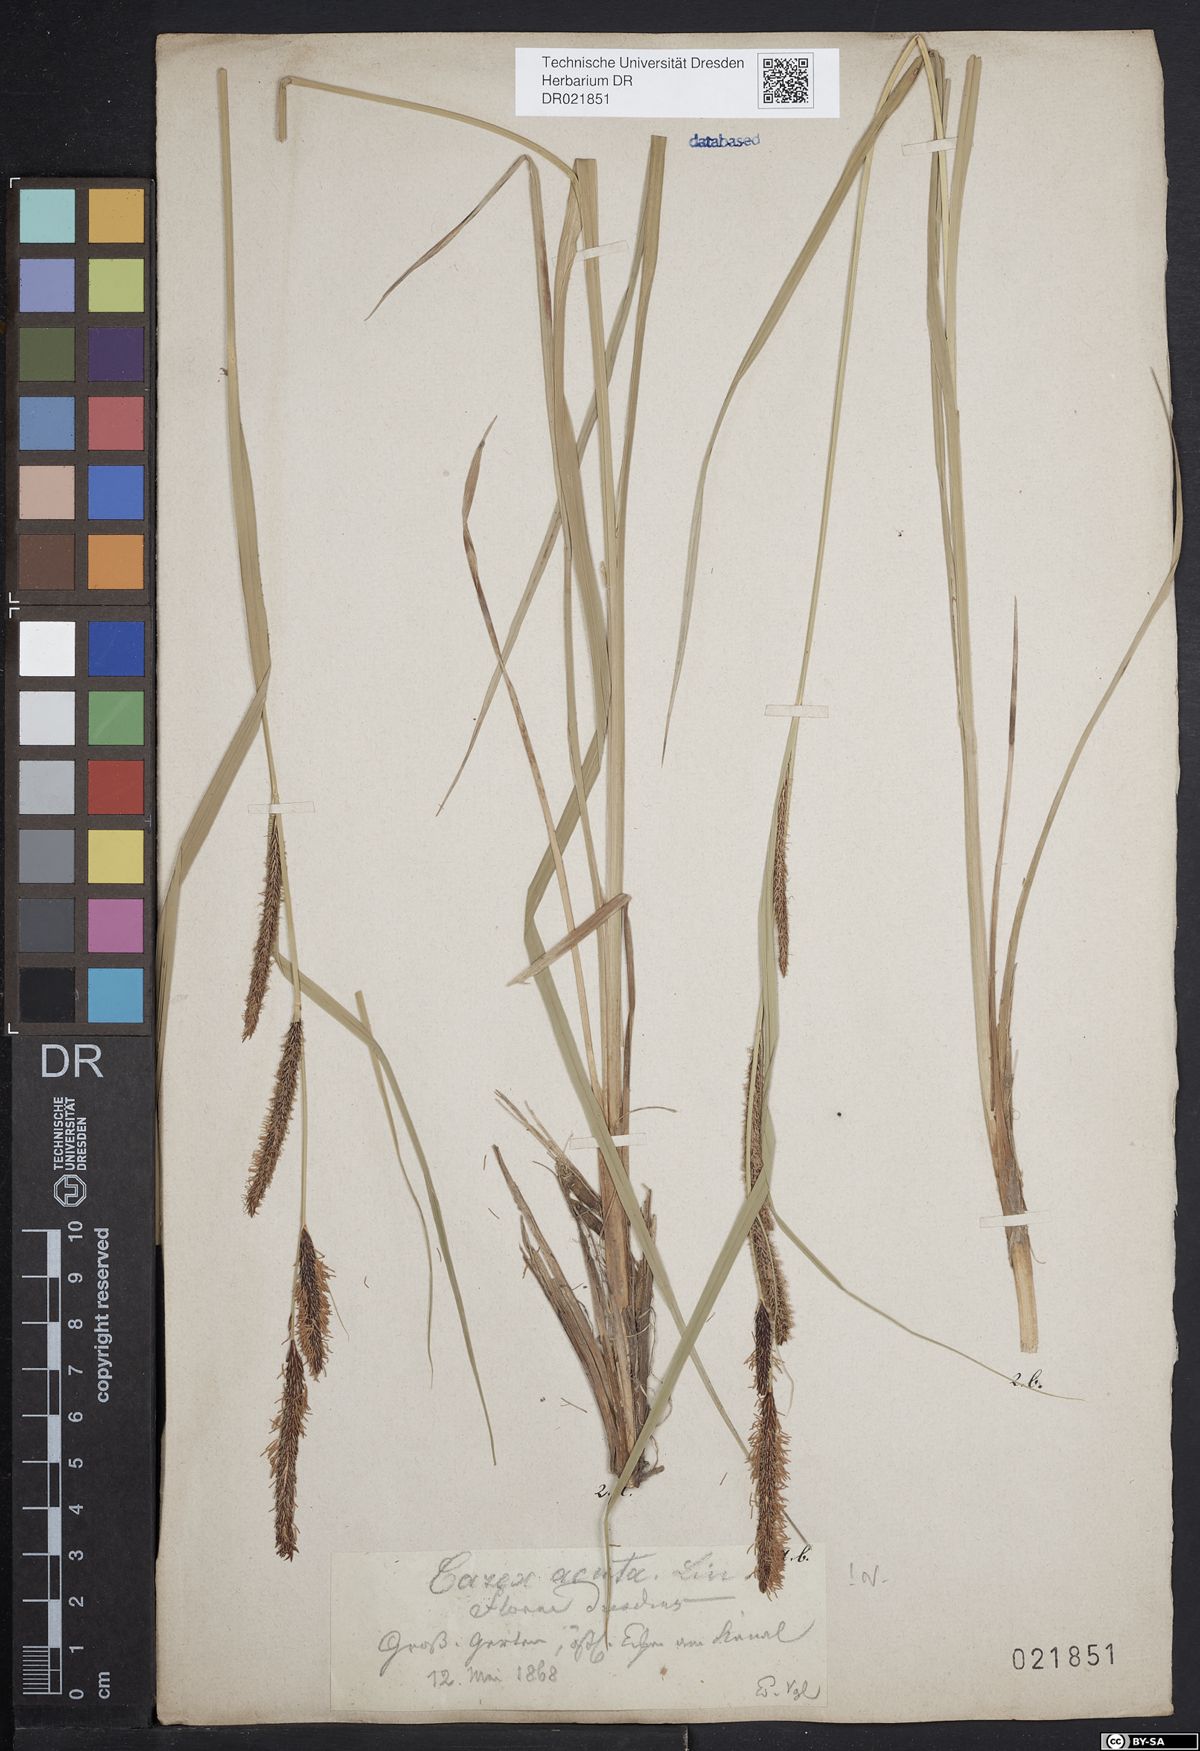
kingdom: Plantae
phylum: Tracheophyta
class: Liliopsida
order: Poales
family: Cyperaceae
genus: Carex
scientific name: Carex acuta
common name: Slender tufted-sedge
